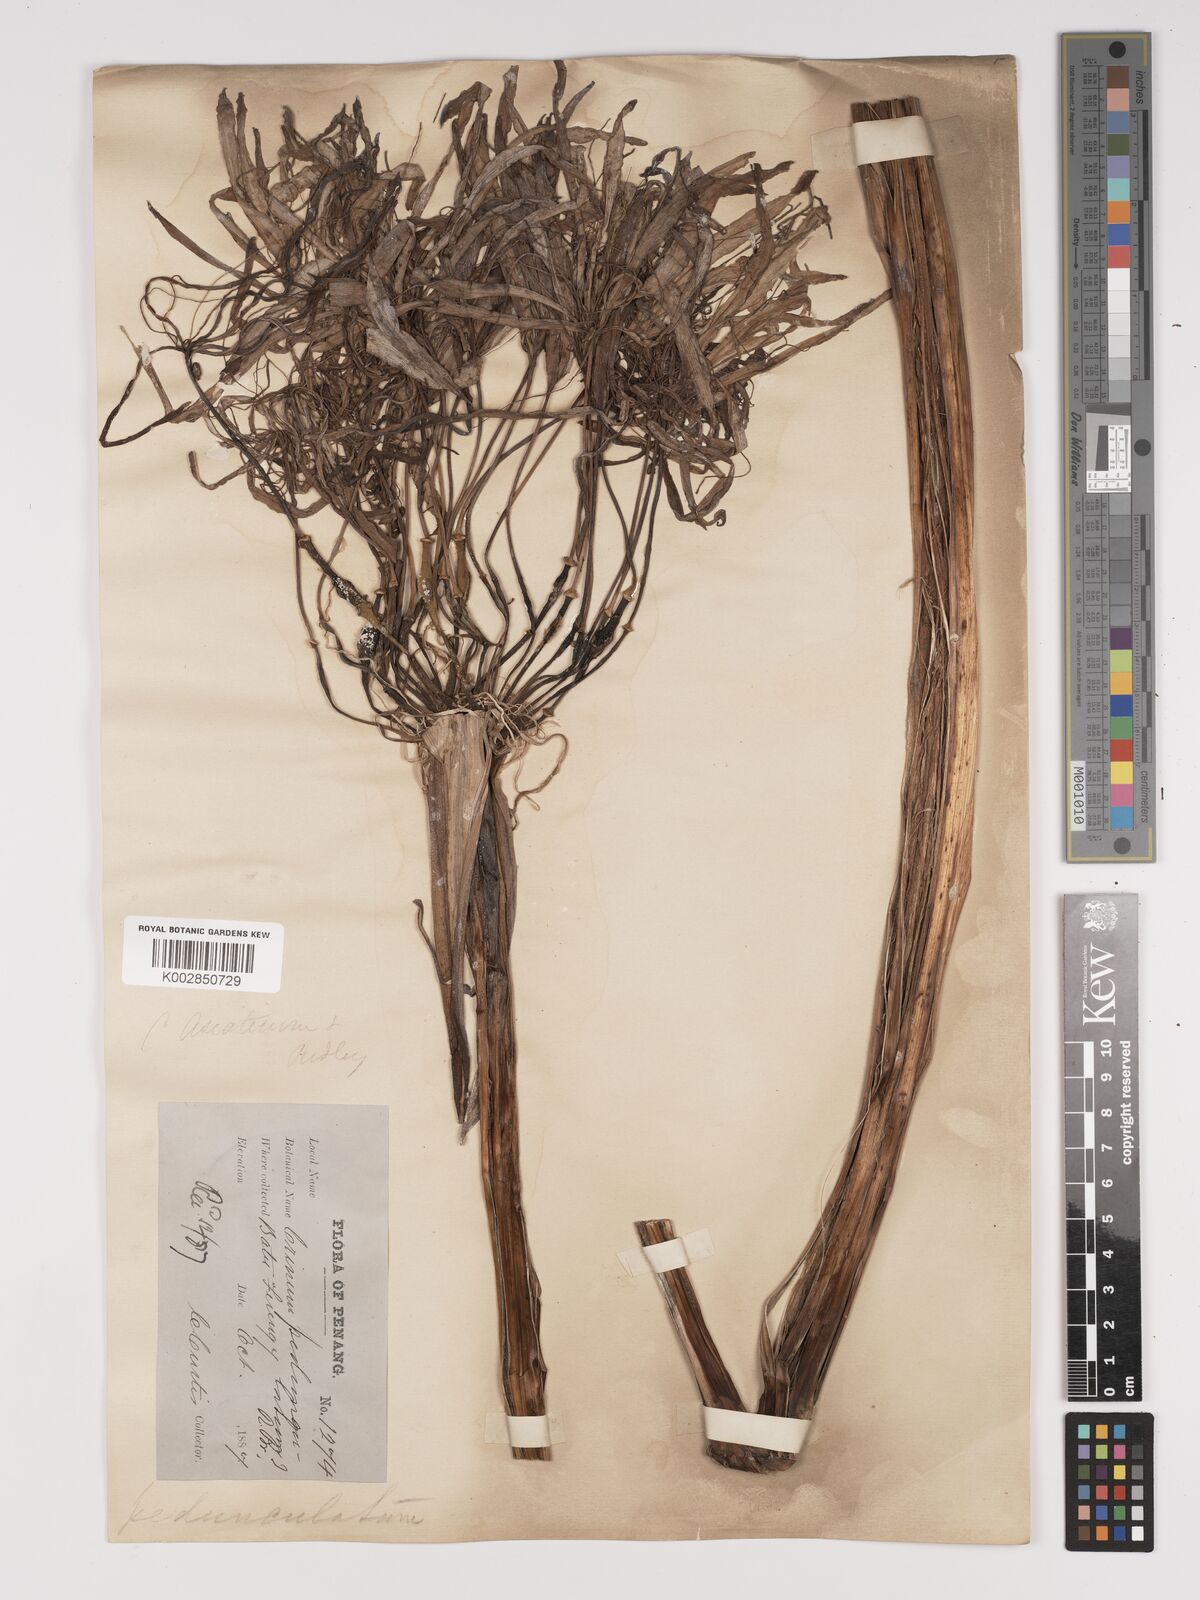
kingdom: Plantae
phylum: Tracheophyta
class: Liliopsida
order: Asparagales
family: Amaryllidaceae
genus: Crinum
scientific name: Crinum asiaticum
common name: Poisonbulb
